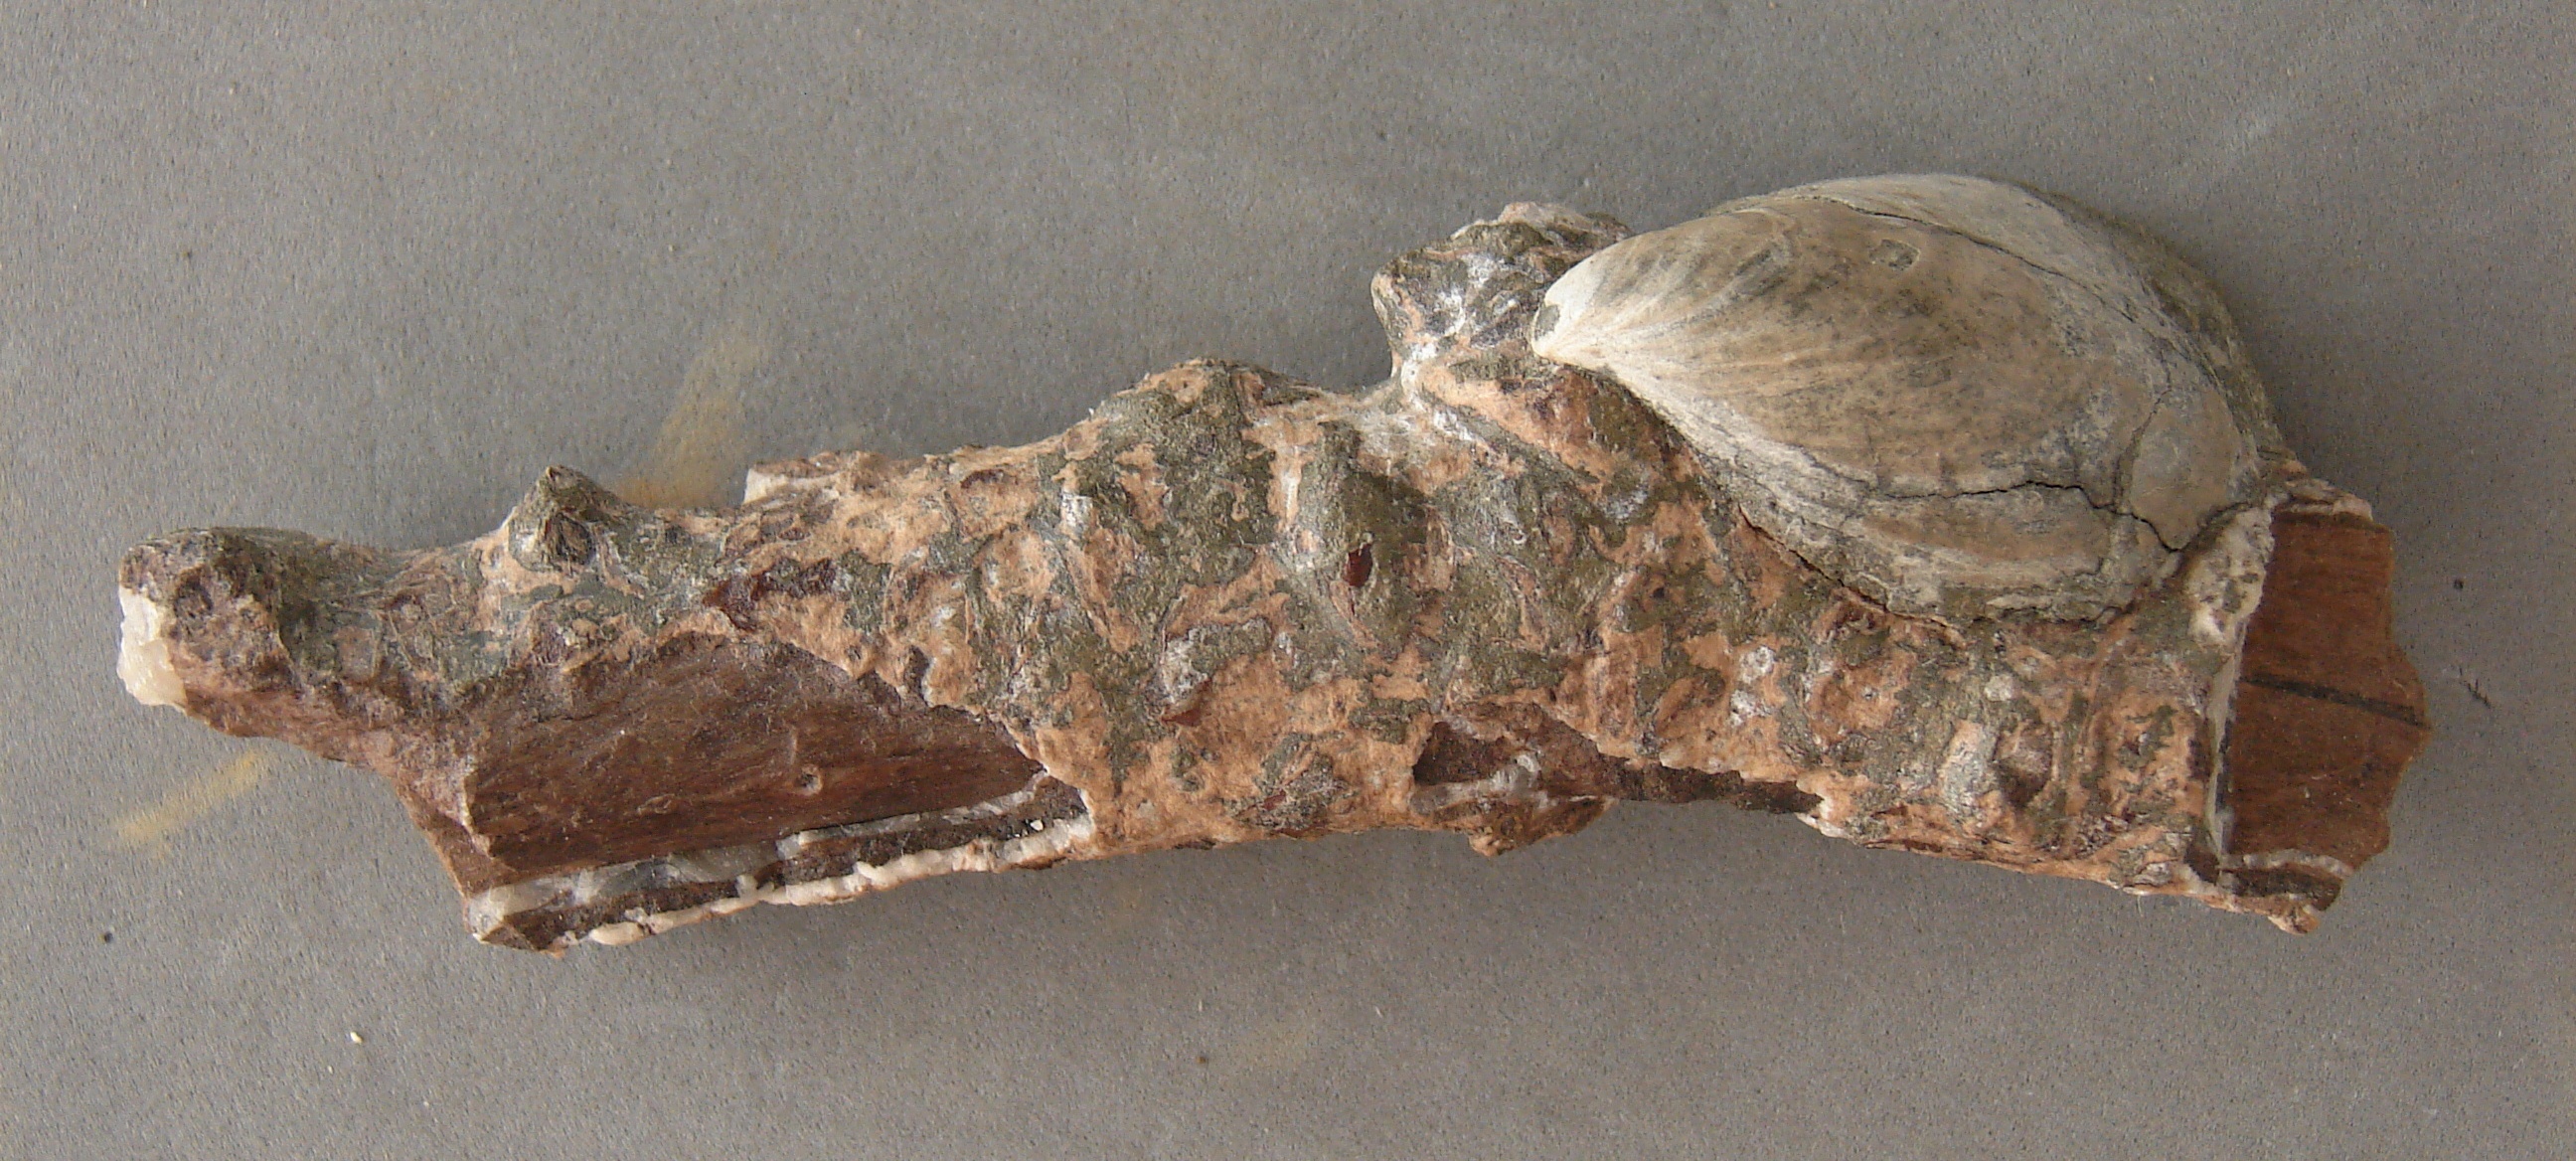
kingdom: Animalia
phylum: Mollusca
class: Bivalvia
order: Myalinida
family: Inoceramidae
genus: Inoceramus
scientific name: Inoceramus dubius
